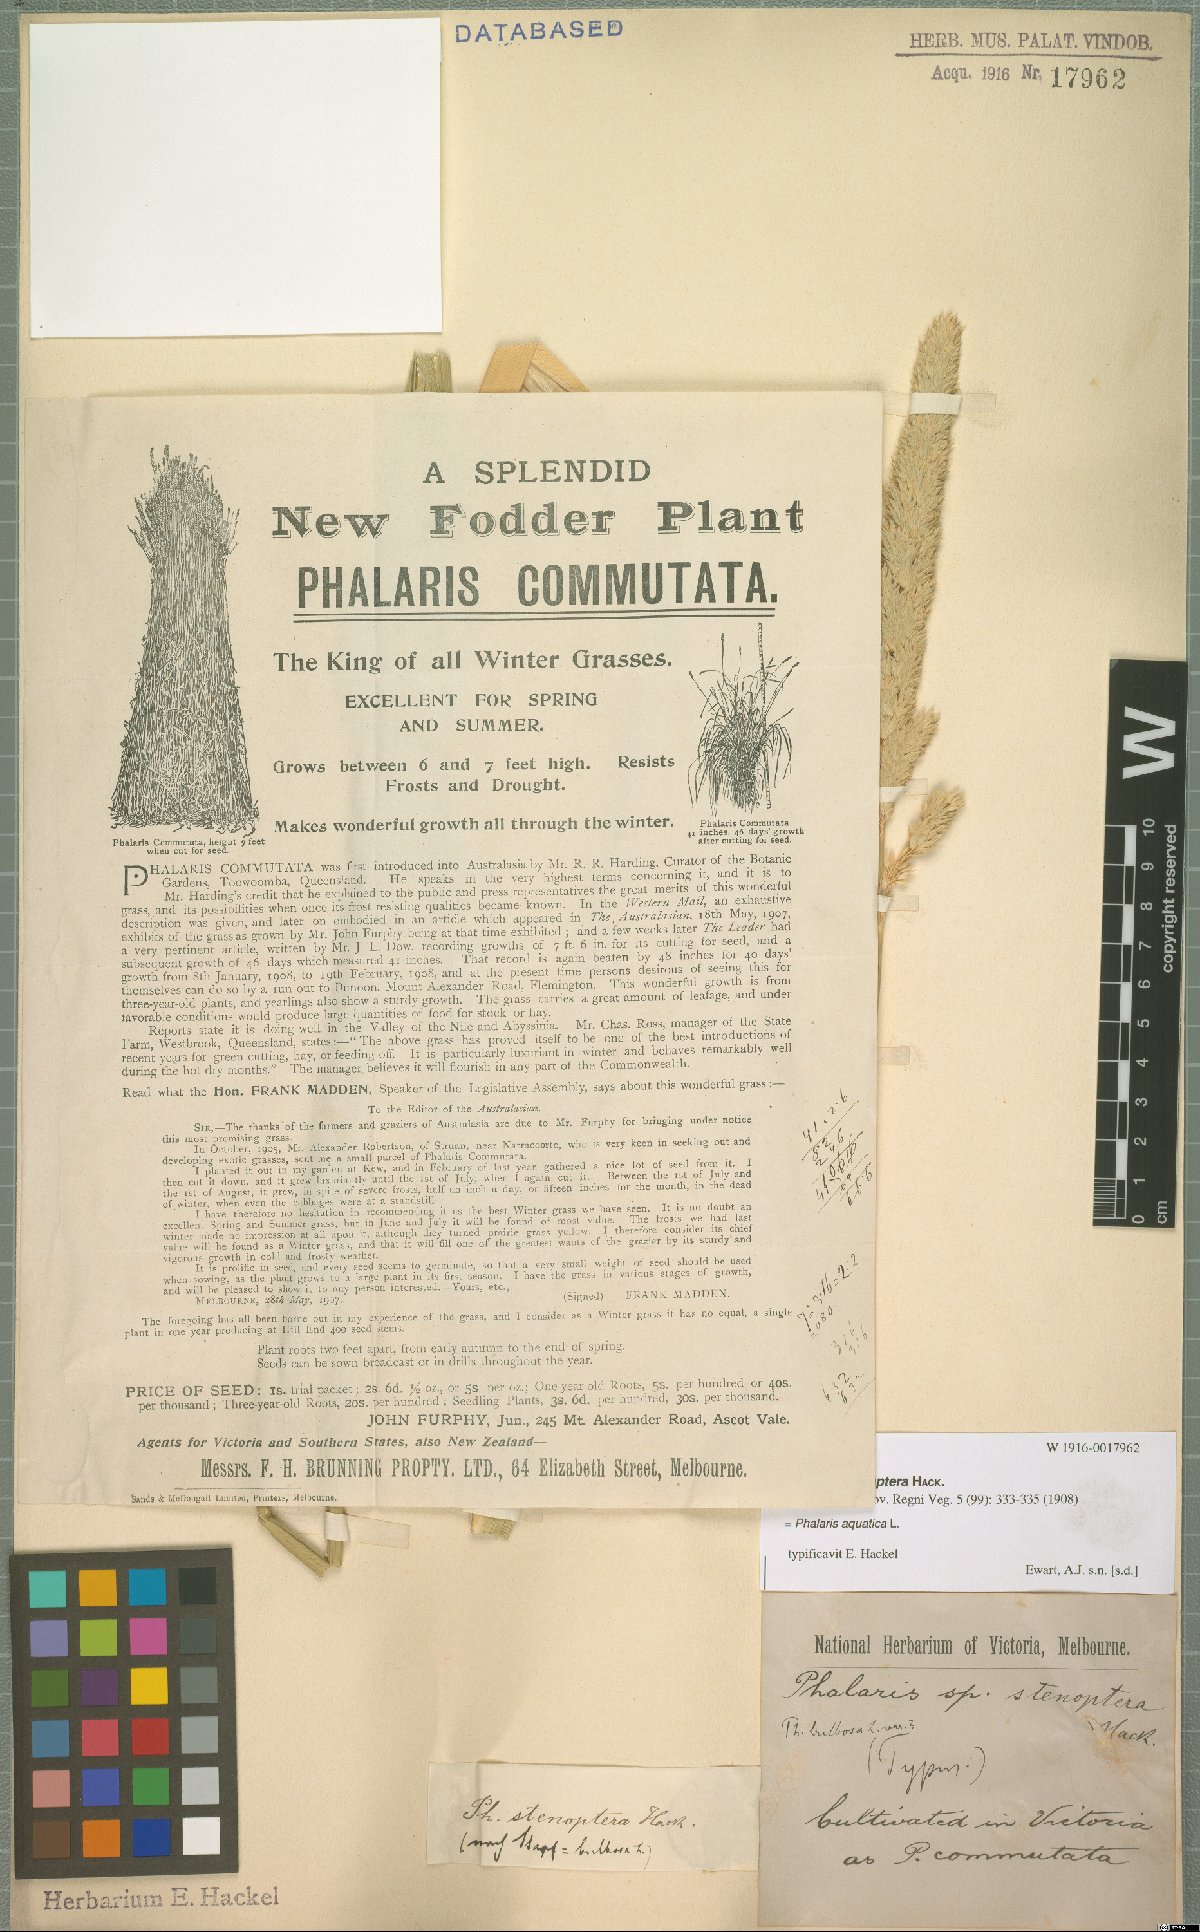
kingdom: Plantae
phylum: Tracheophyta
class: Liliopsida
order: Poales
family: Poaceae
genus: Phalaris
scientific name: Phalaris aquatica
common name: Bulbous canary-grass
